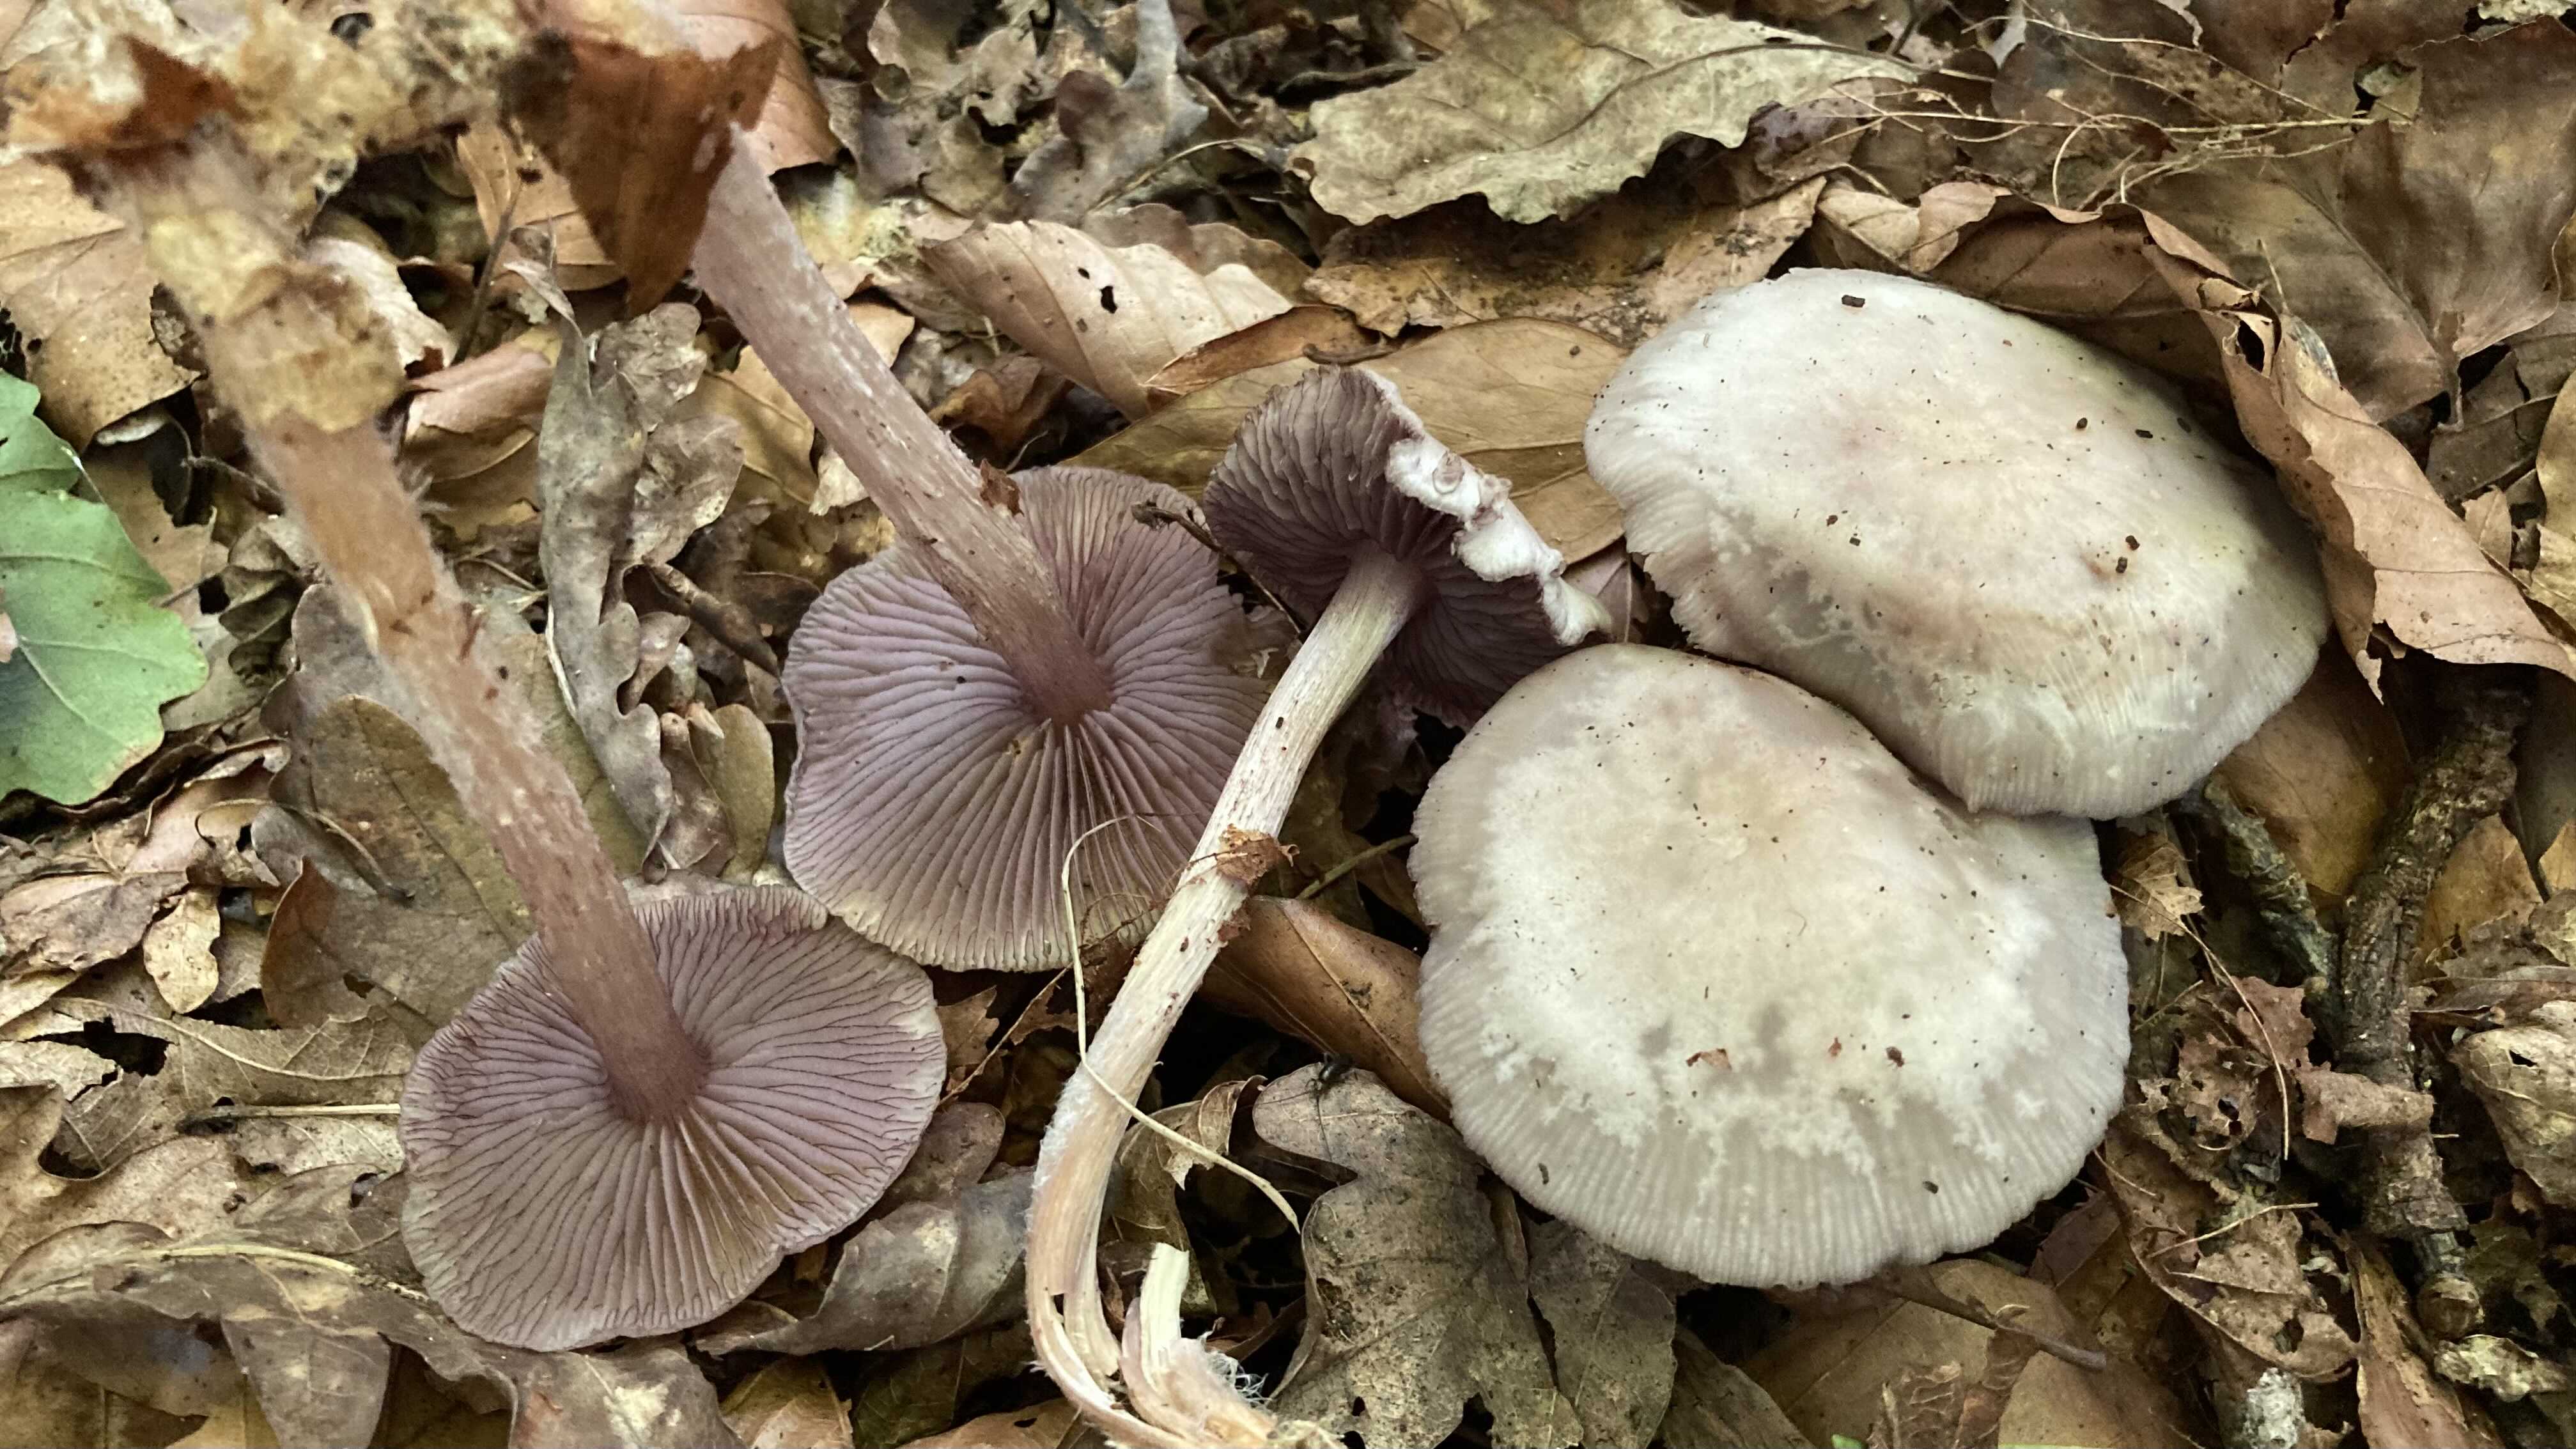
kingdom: Fungi
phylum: Basidiomycota
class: Agaricomycetes
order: Agaricales
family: Mycenaceae
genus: Mycena
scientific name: Mycena pelianthina
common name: mørkbladet huesvamp
